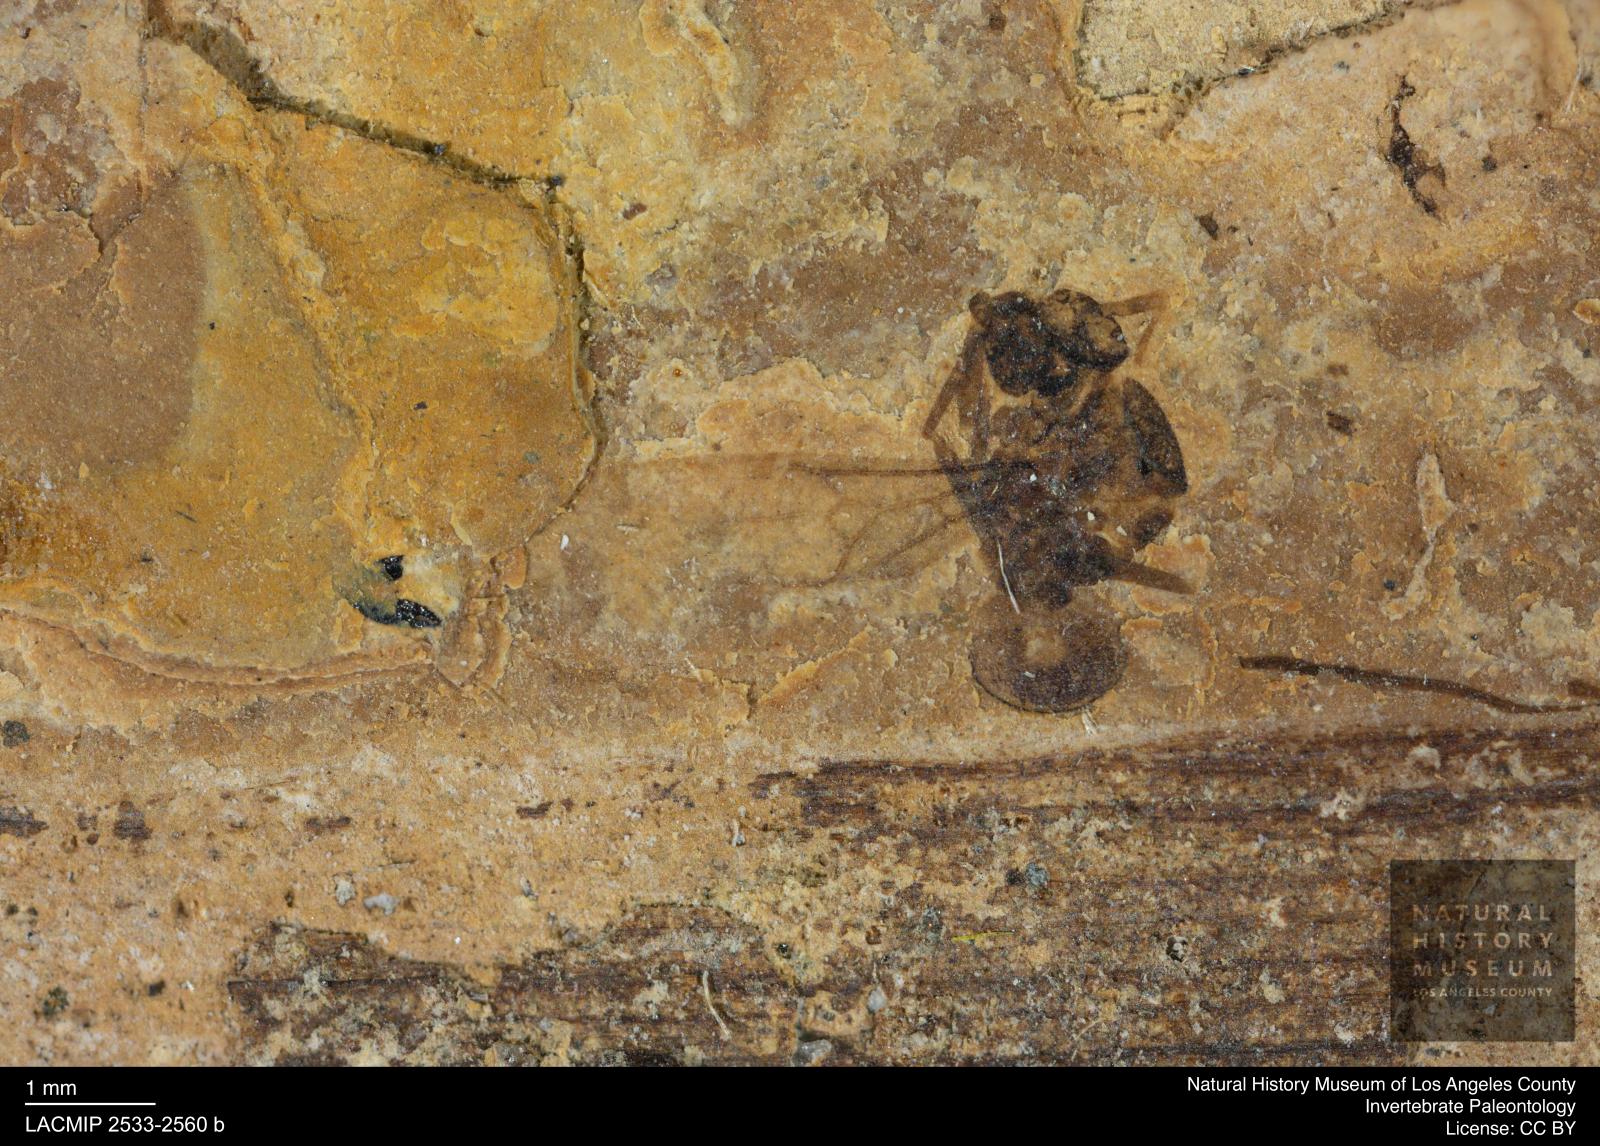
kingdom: Animalia
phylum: Arthropoda
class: Insecta
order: Hymenoptera
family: Formicidae
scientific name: Formicidae
